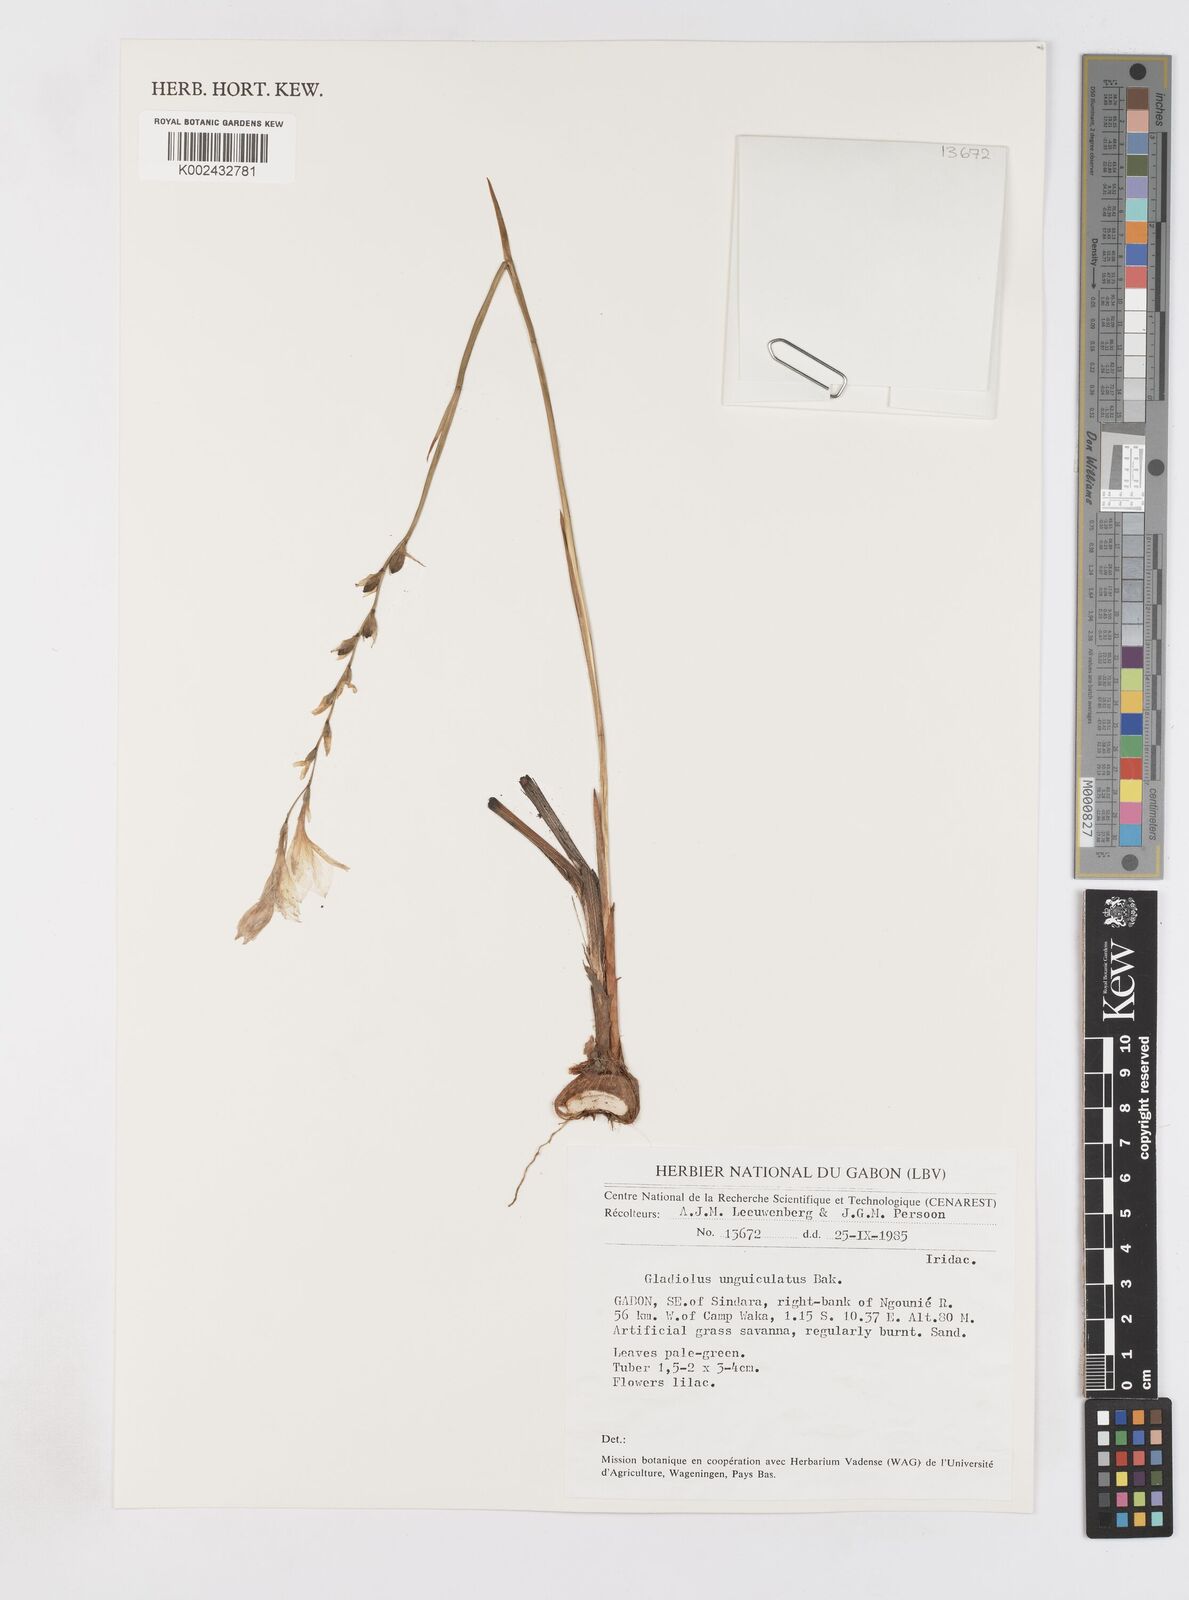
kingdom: Plantae
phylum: Tracheophyta
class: Liliopsida
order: Asparagales
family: Iridaceae
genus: Gladiolus
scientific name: Gladiolus unguiculatus
